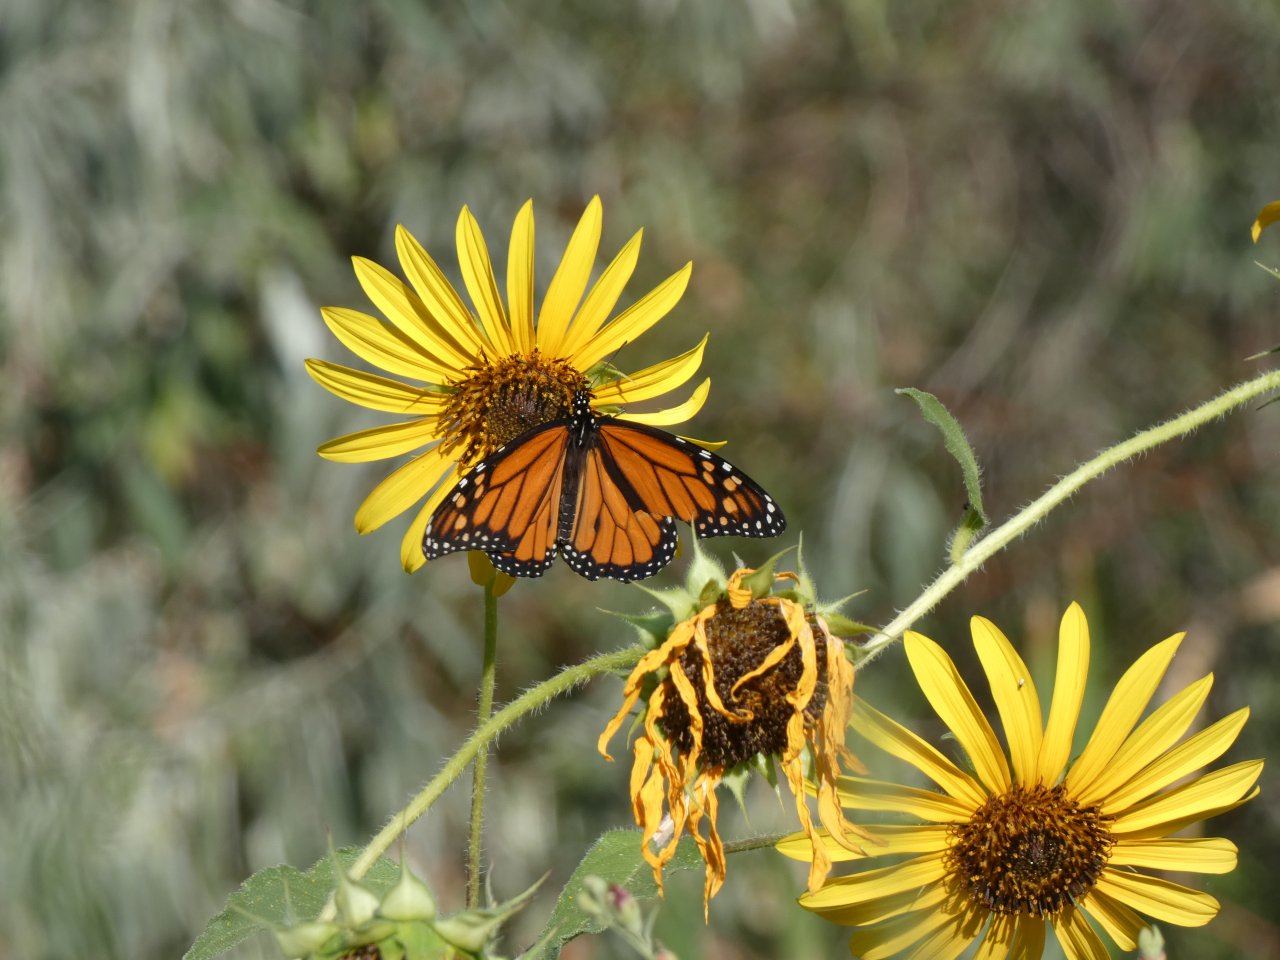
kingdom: Animalia
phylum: Arthropoda
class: Insecta
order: Lepidoptera
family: Hesperiidae
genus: Pyrgus
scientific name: Pyrgus communis
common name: Common Checkered-Skipper
